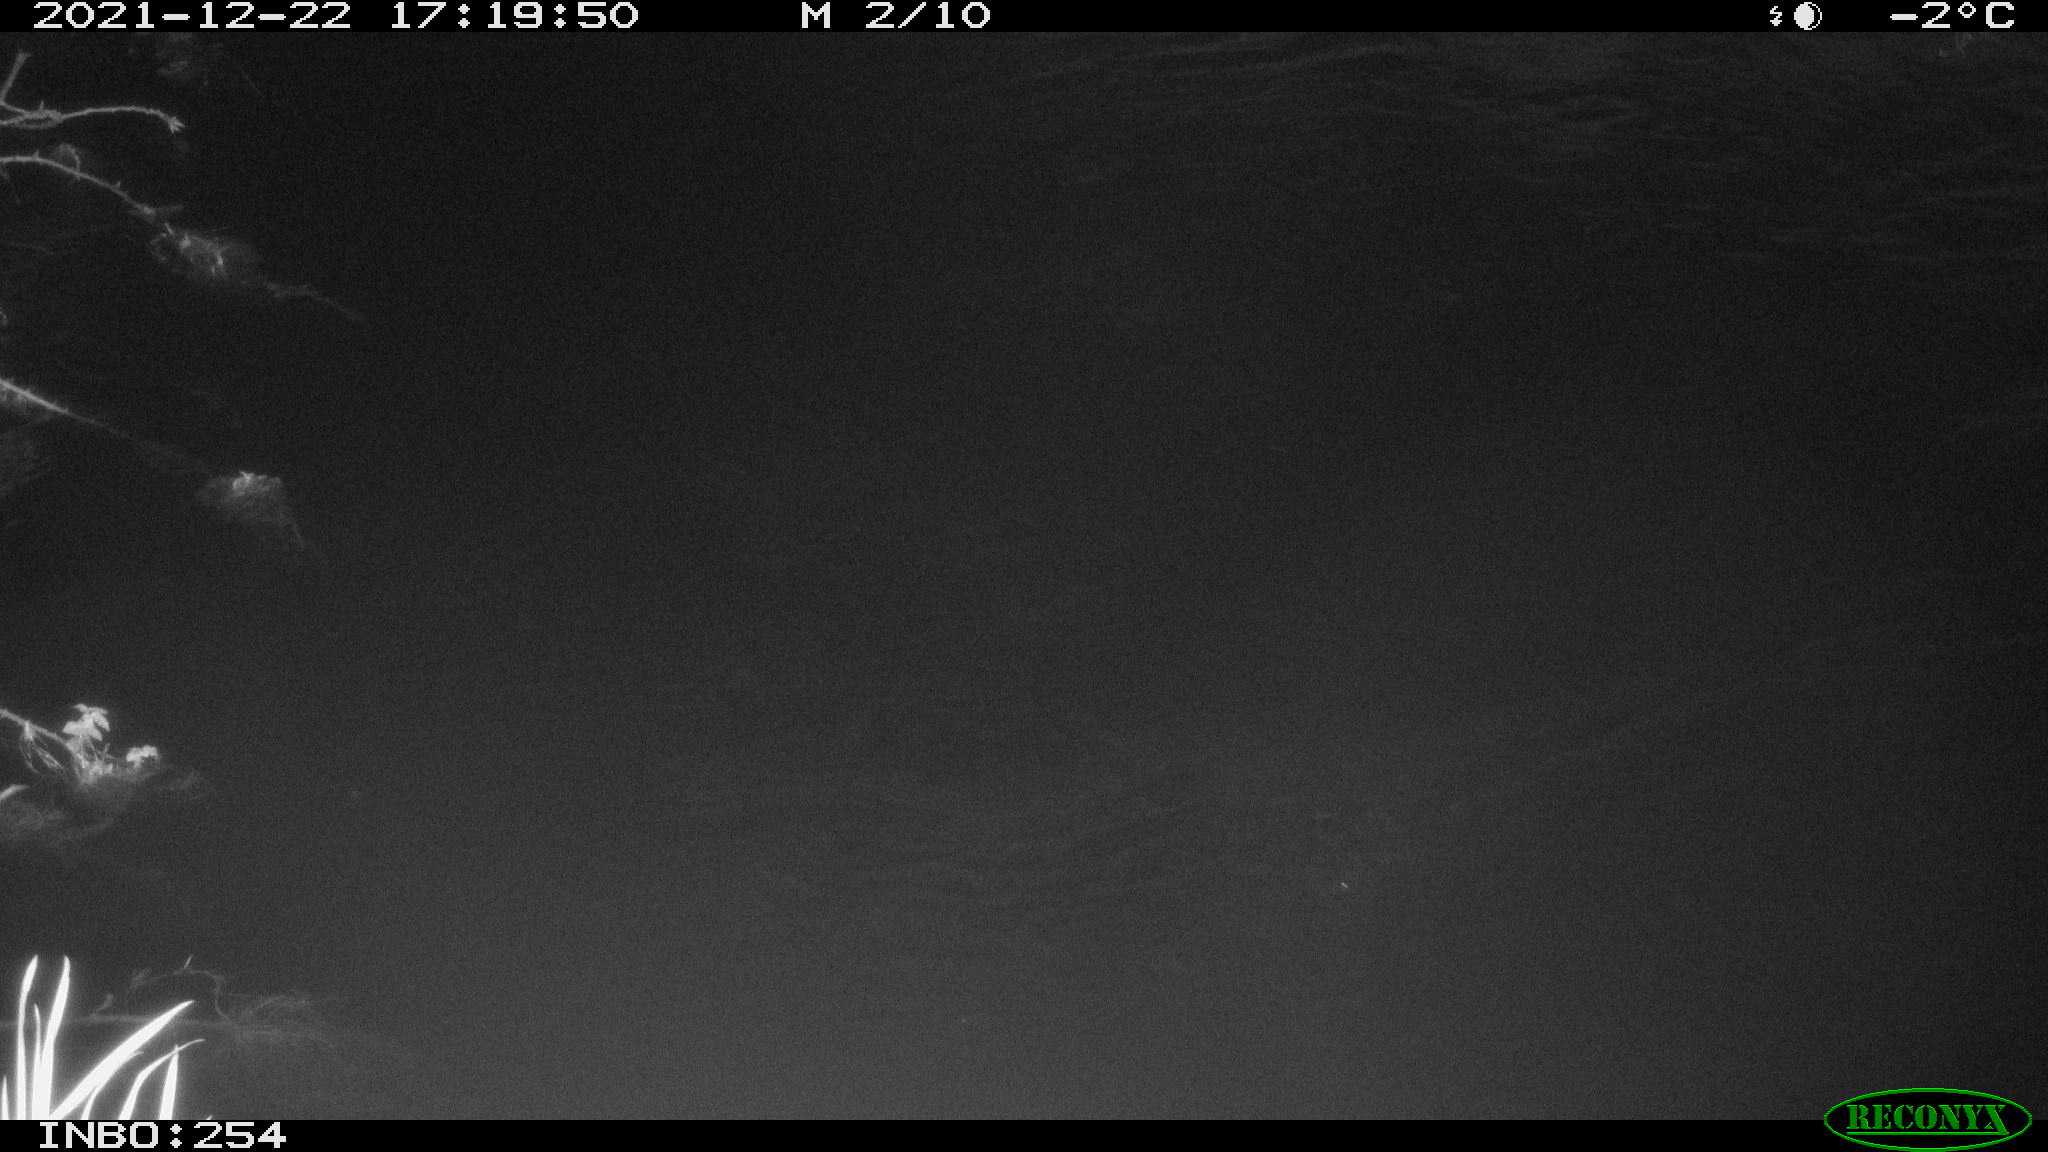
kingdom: Animalia
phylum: Chordata
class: Aves
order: Anseriformes
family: Anatidae
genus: Anas
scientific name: Anas platyrhynchos
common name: Mallard
